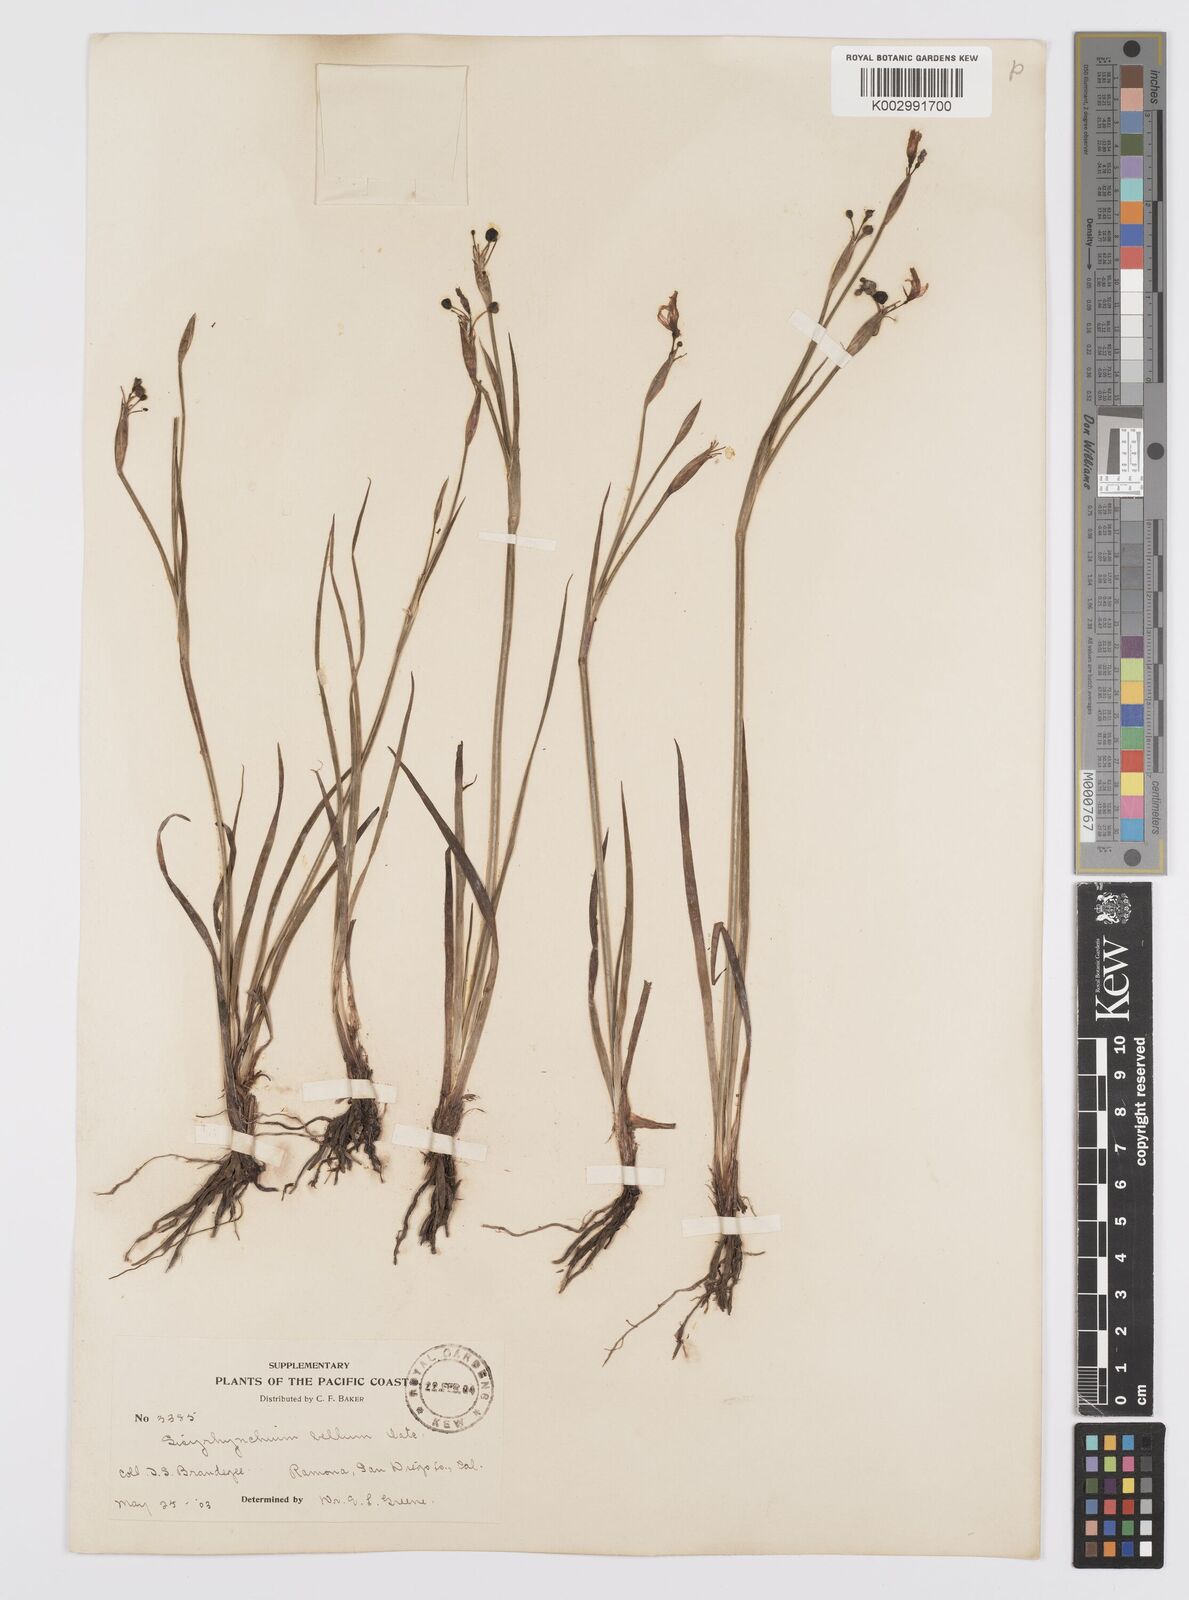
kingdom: Plantae
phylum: Tracheophyta
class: Liliopsida
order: Asparagales
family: Iridaceae
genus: Sisyrinchium
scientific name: Sisyrinchium bellum
